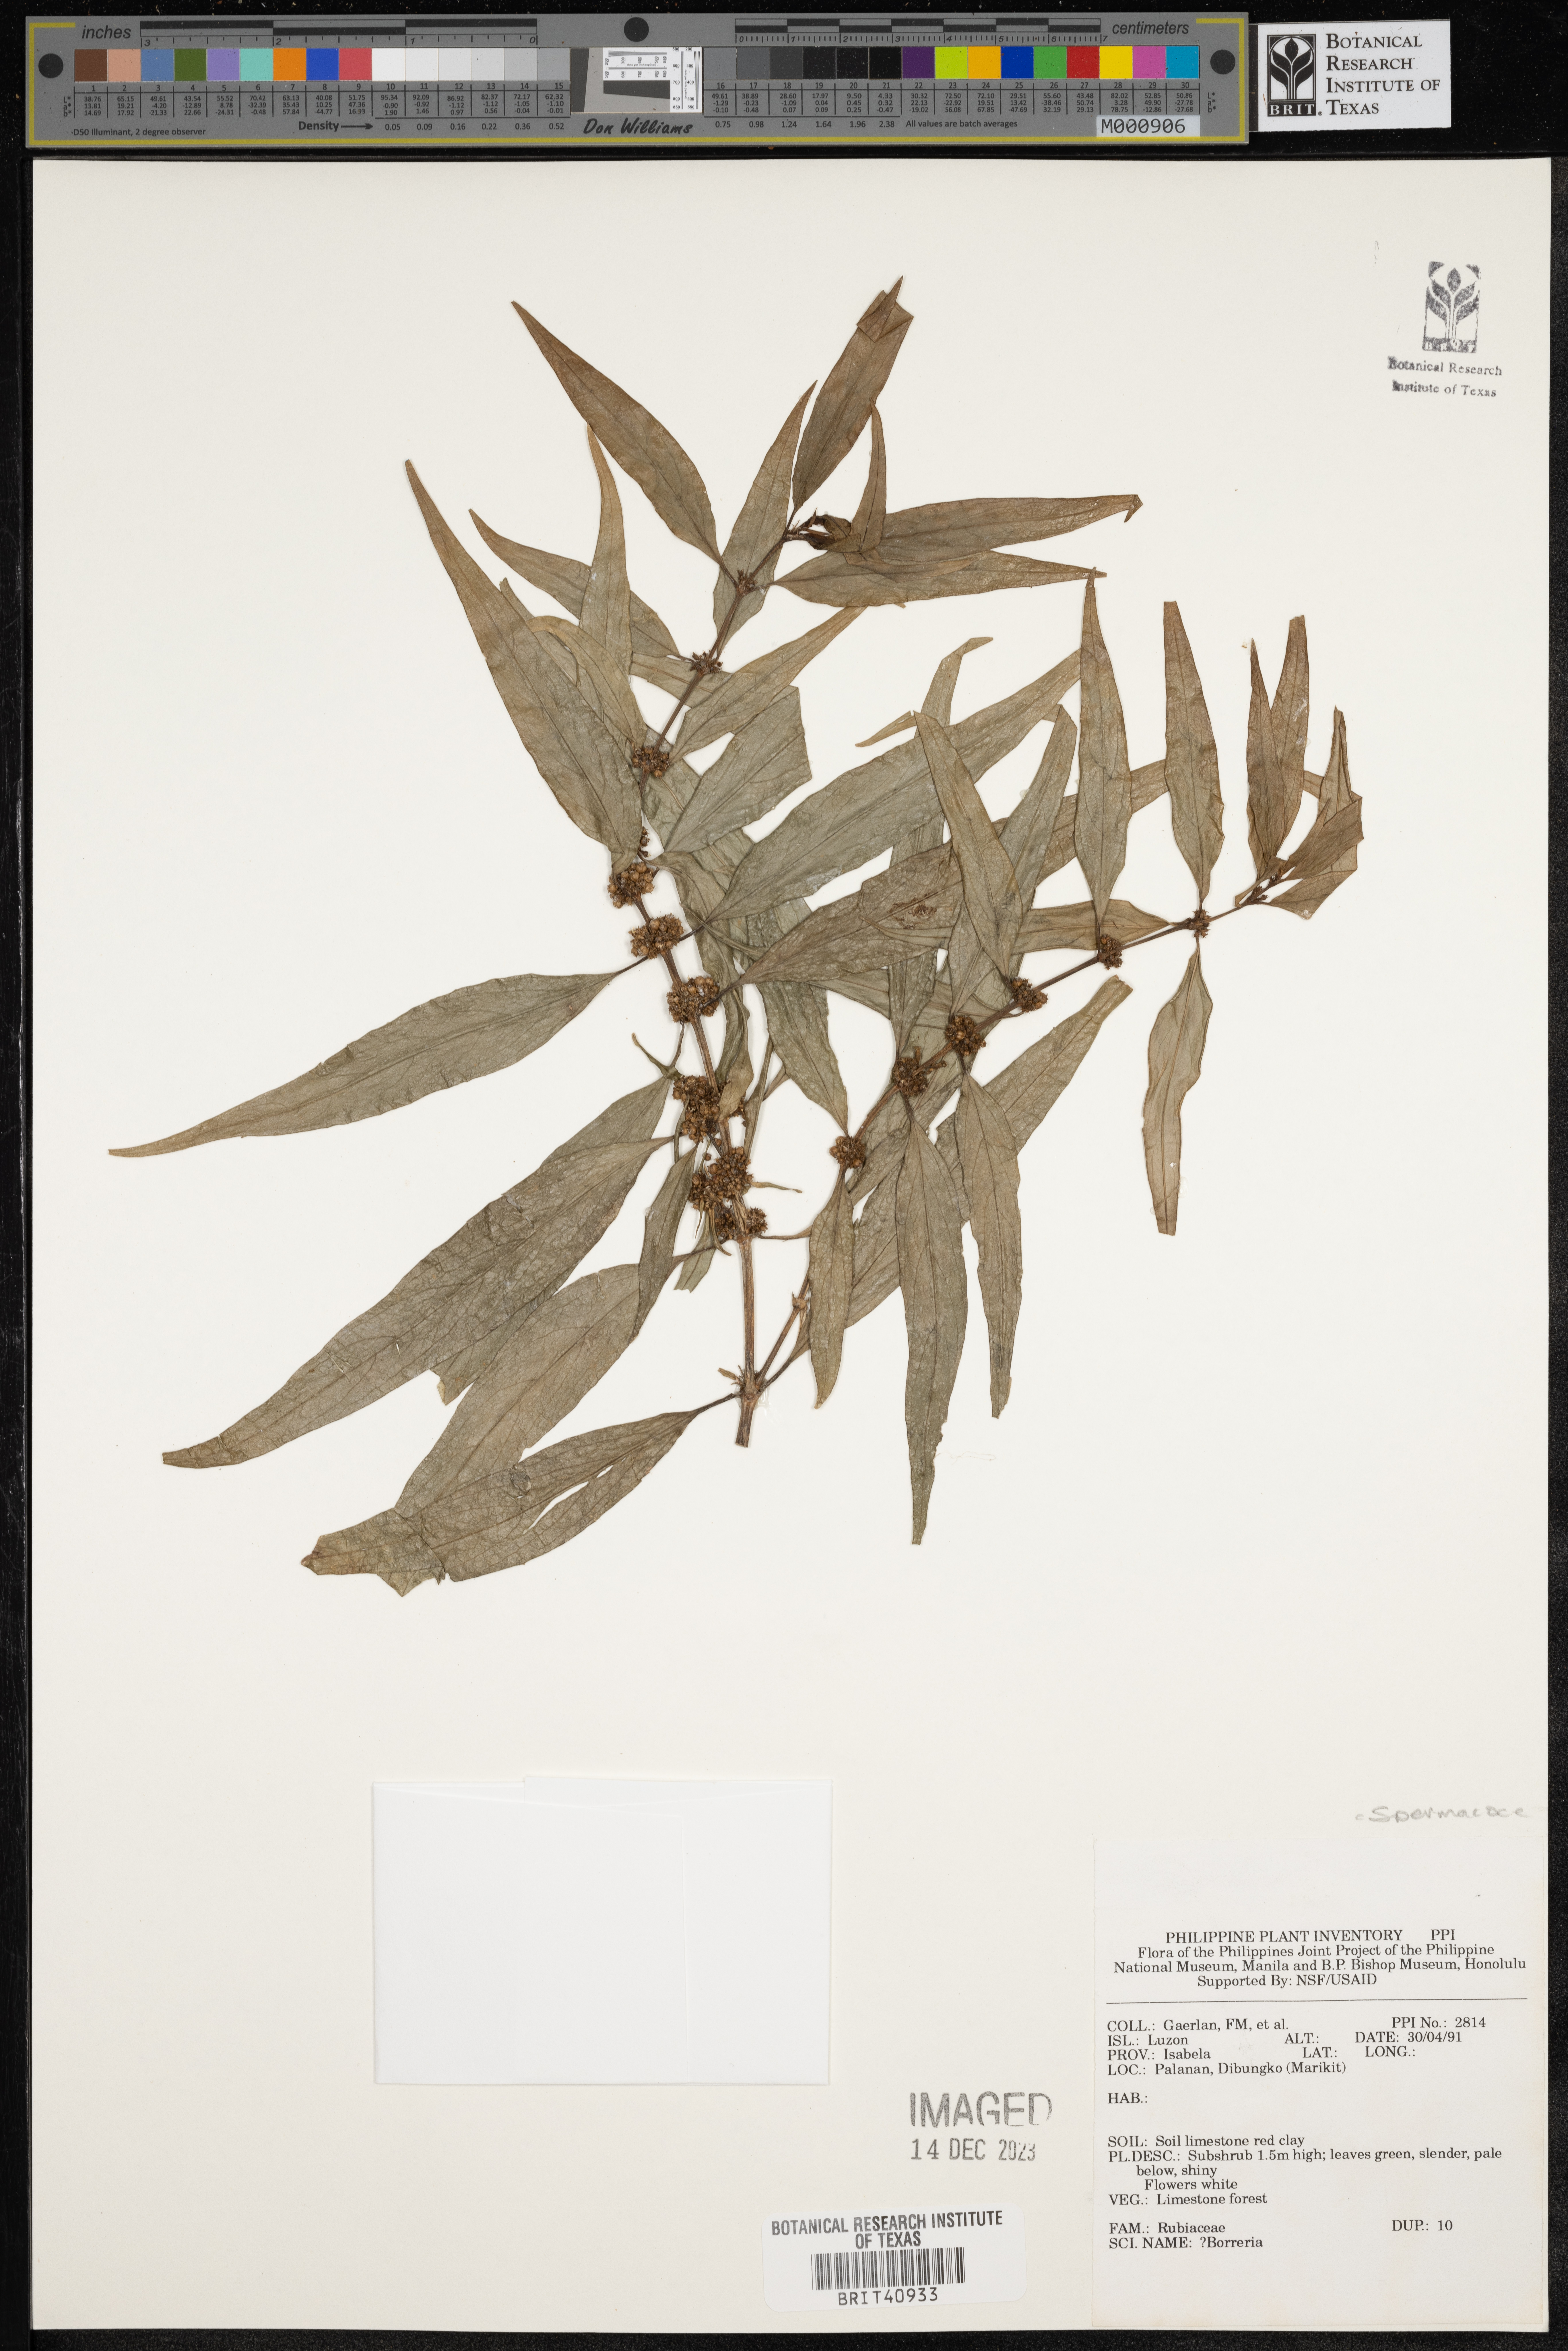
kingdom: Plantae
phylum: Tracheophyta
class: Magnoliopsida
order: Gentianales
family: Rubiaceae
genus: Spermacoce
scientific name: Spermacoce
